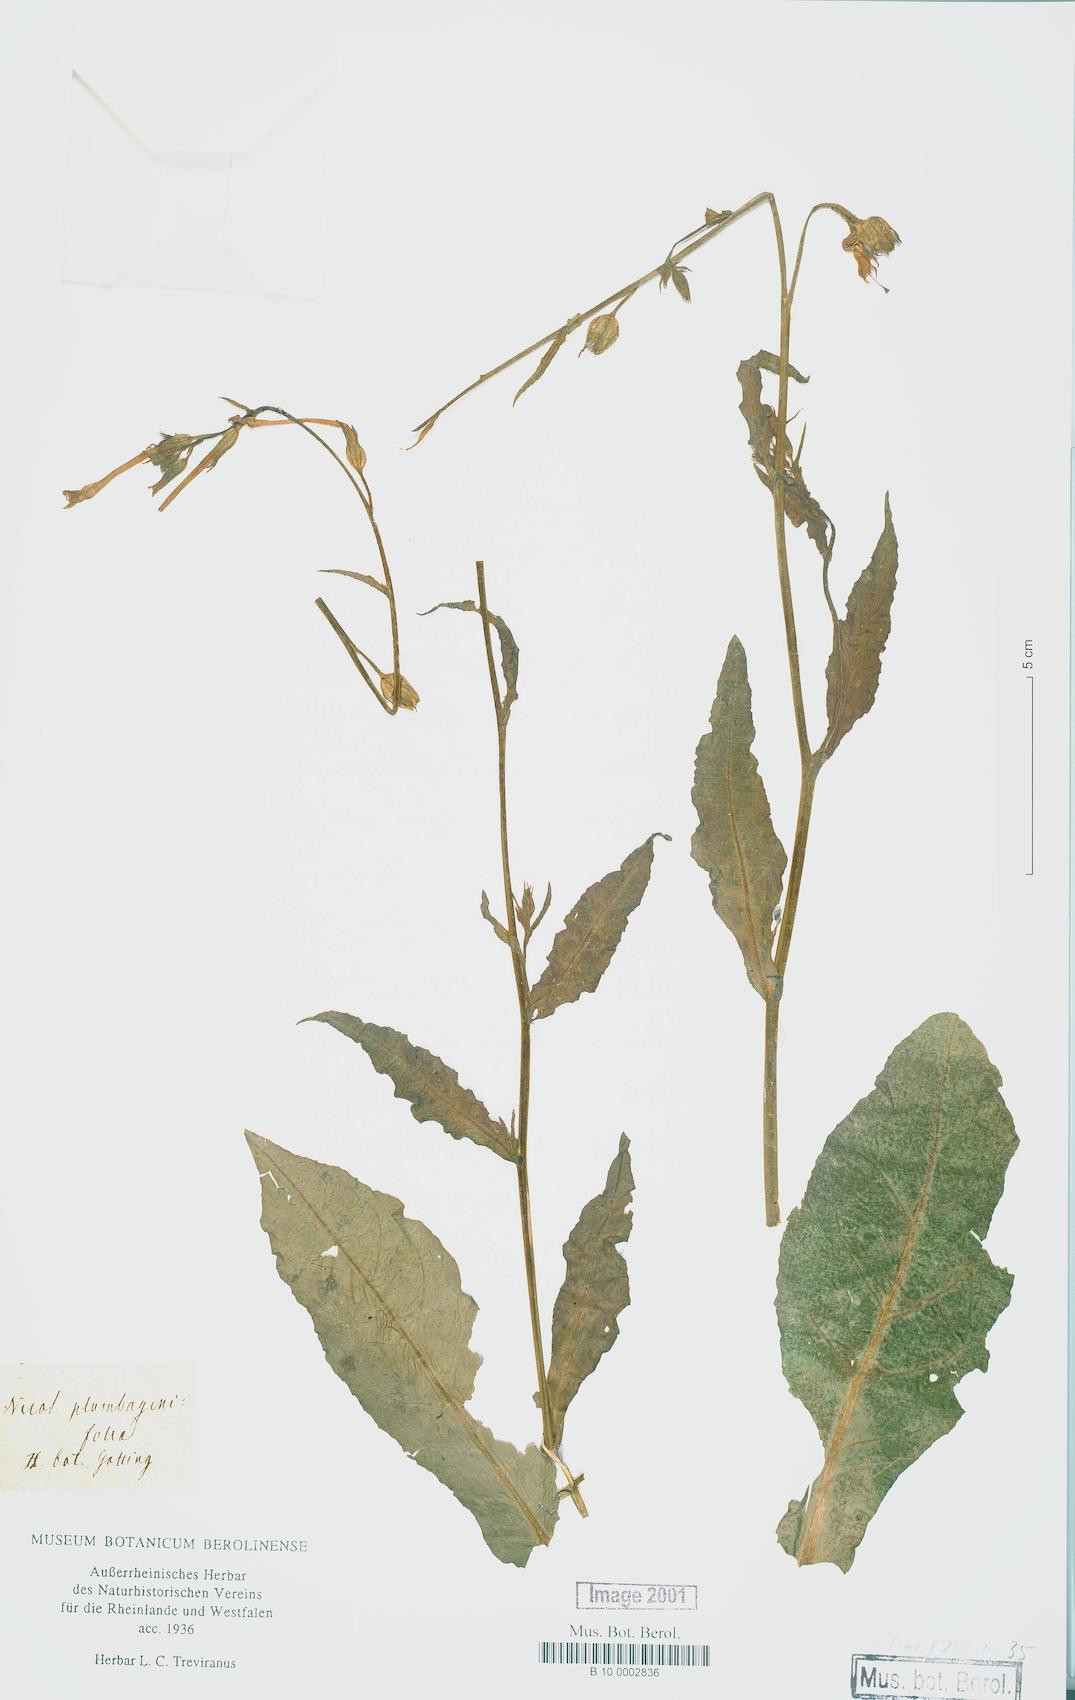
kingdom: Plantae
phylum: Tracheophyta
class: Magnoliopsida
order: Solanales
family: Solanaceae
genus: Nicotiana
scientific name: Nicotiana plumbaginifolia
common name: Tex-mex tobacco
